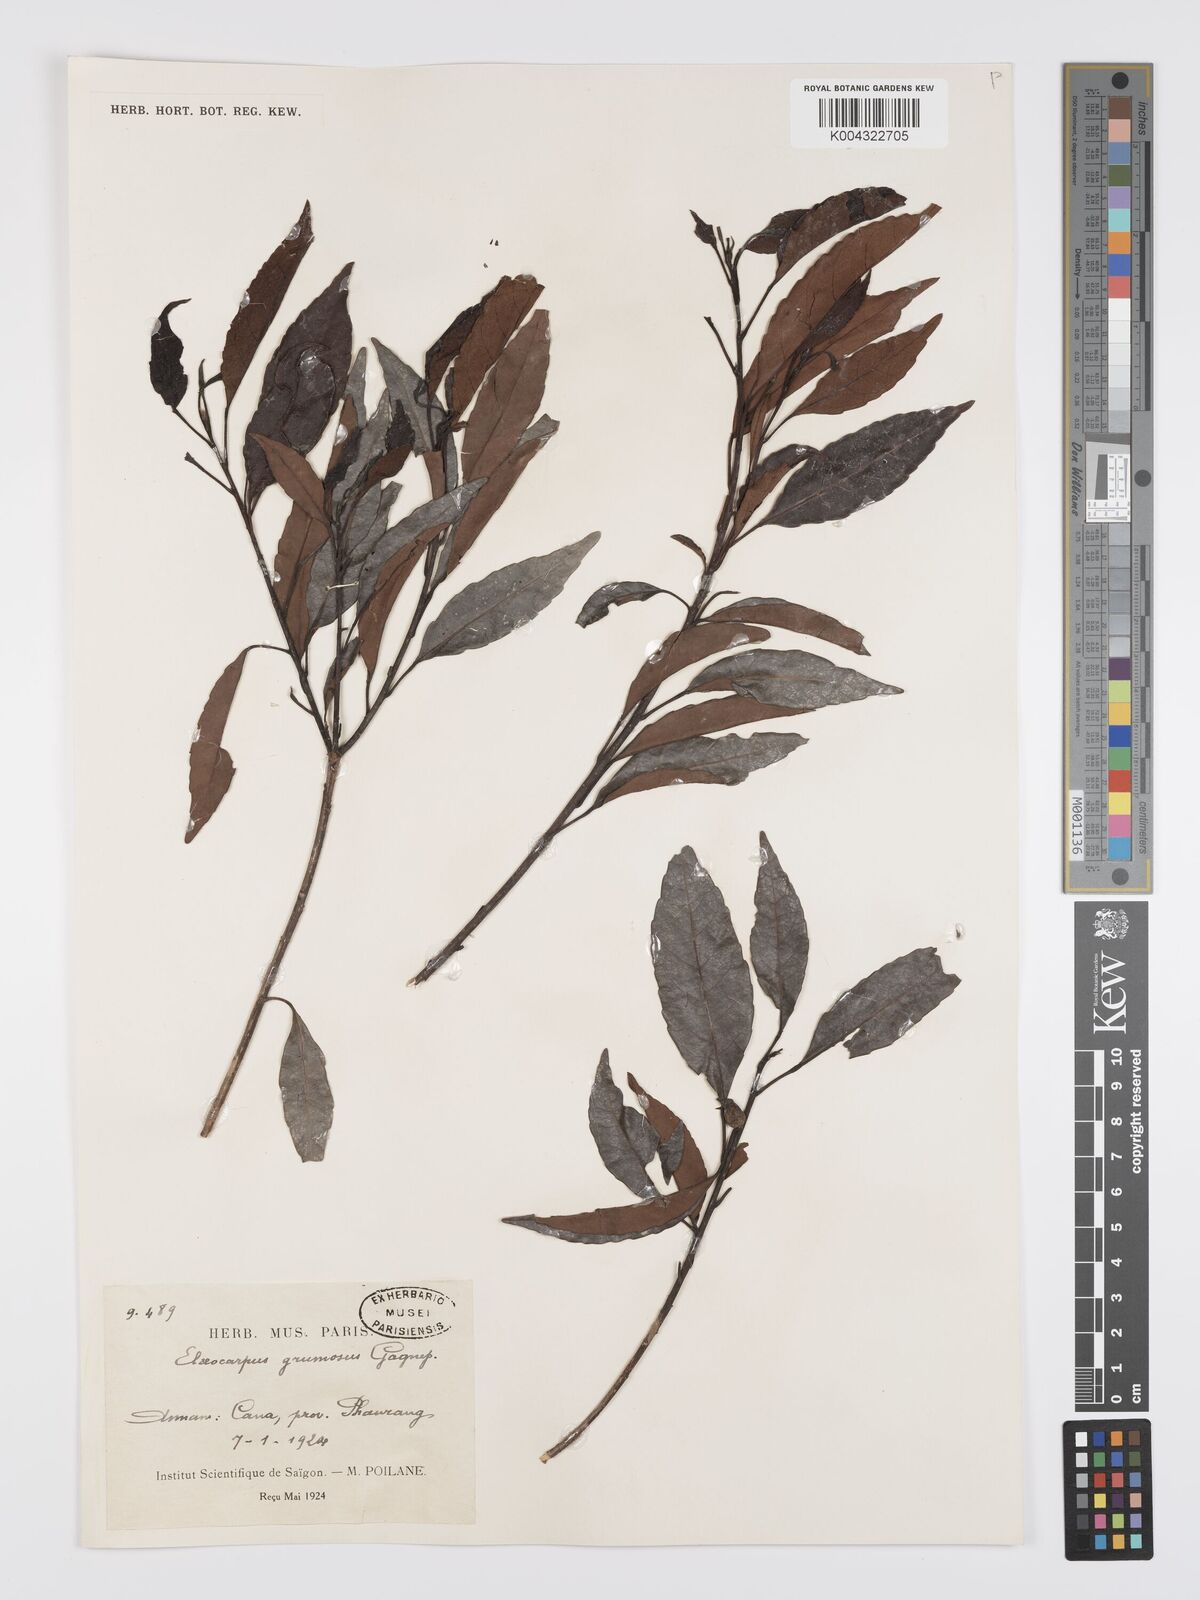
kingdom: Plantae
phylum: Tracheophyta
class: Magnoliopsida
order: Oxalidales
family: Elaeocarpaceae
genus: Elaeocarpus
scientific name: Elaeocarpus grumosus
